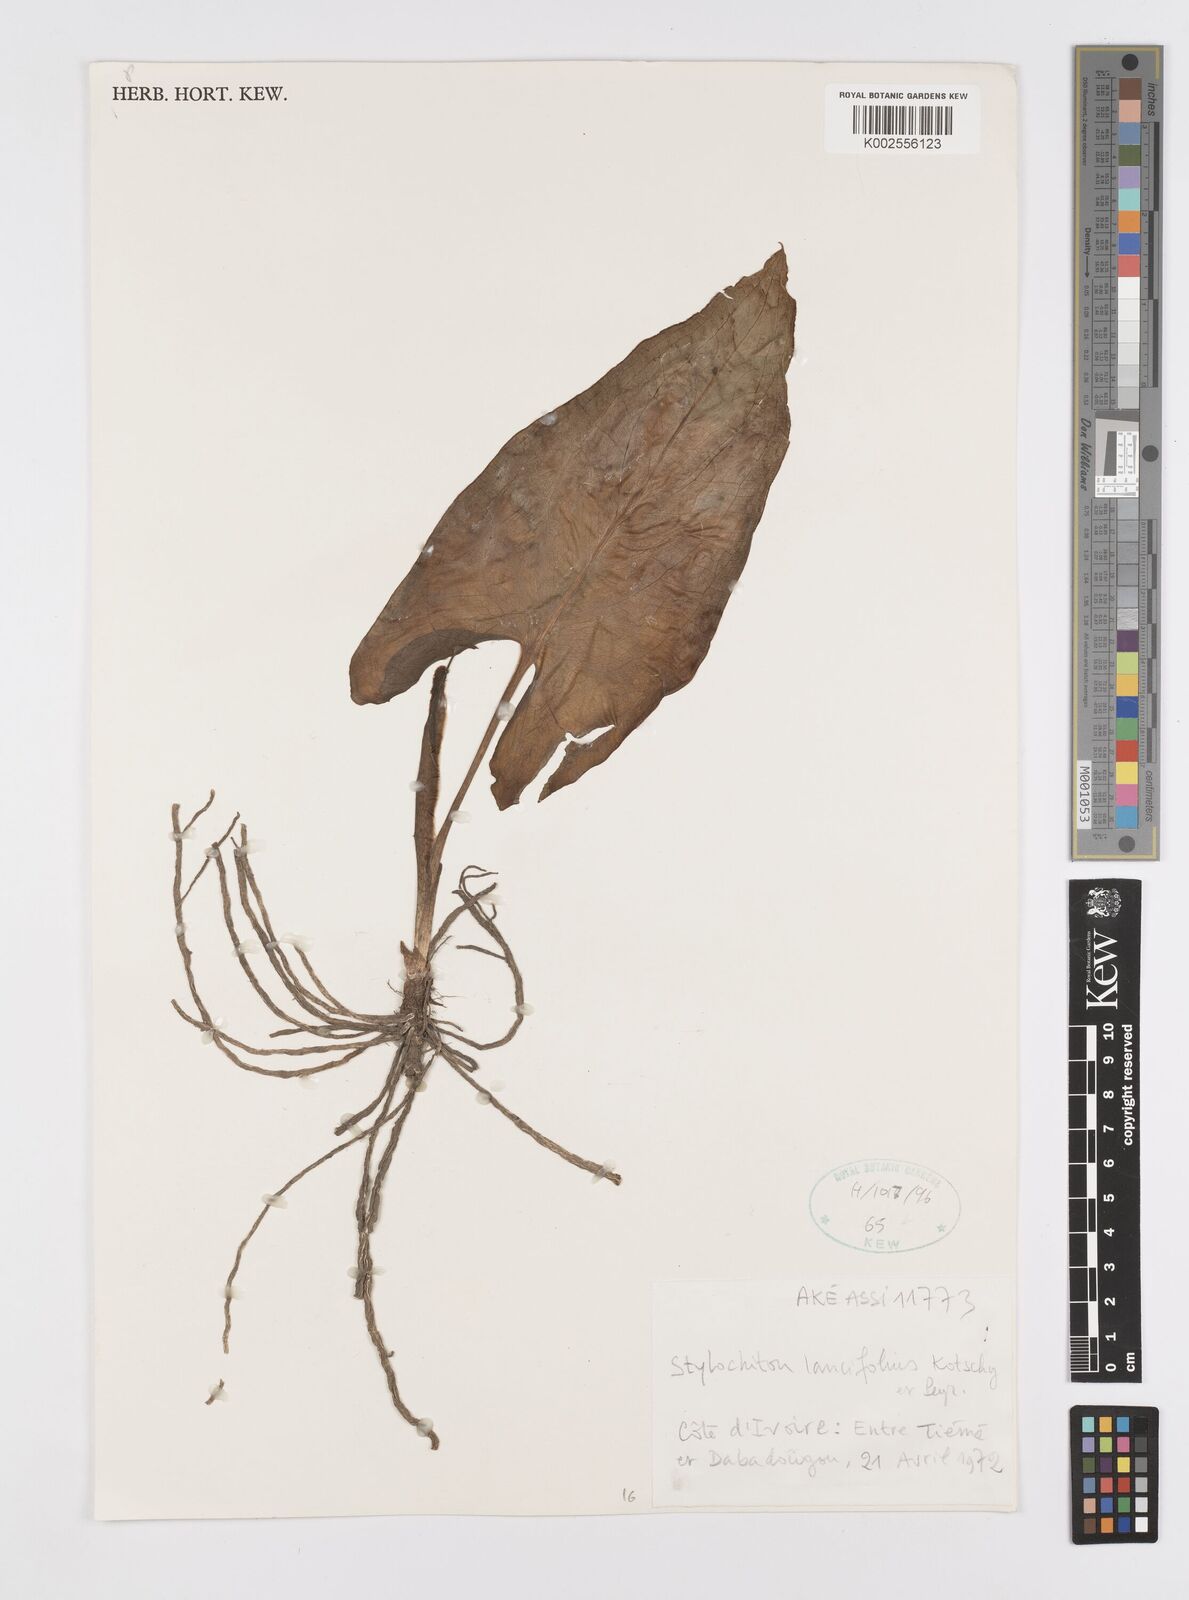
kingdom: Plantae
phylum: Tracheophyta
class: Liliopsida
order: Alismatales
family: Araceae
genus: Stylochaeton
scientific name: Stylochaeton lancifolium
